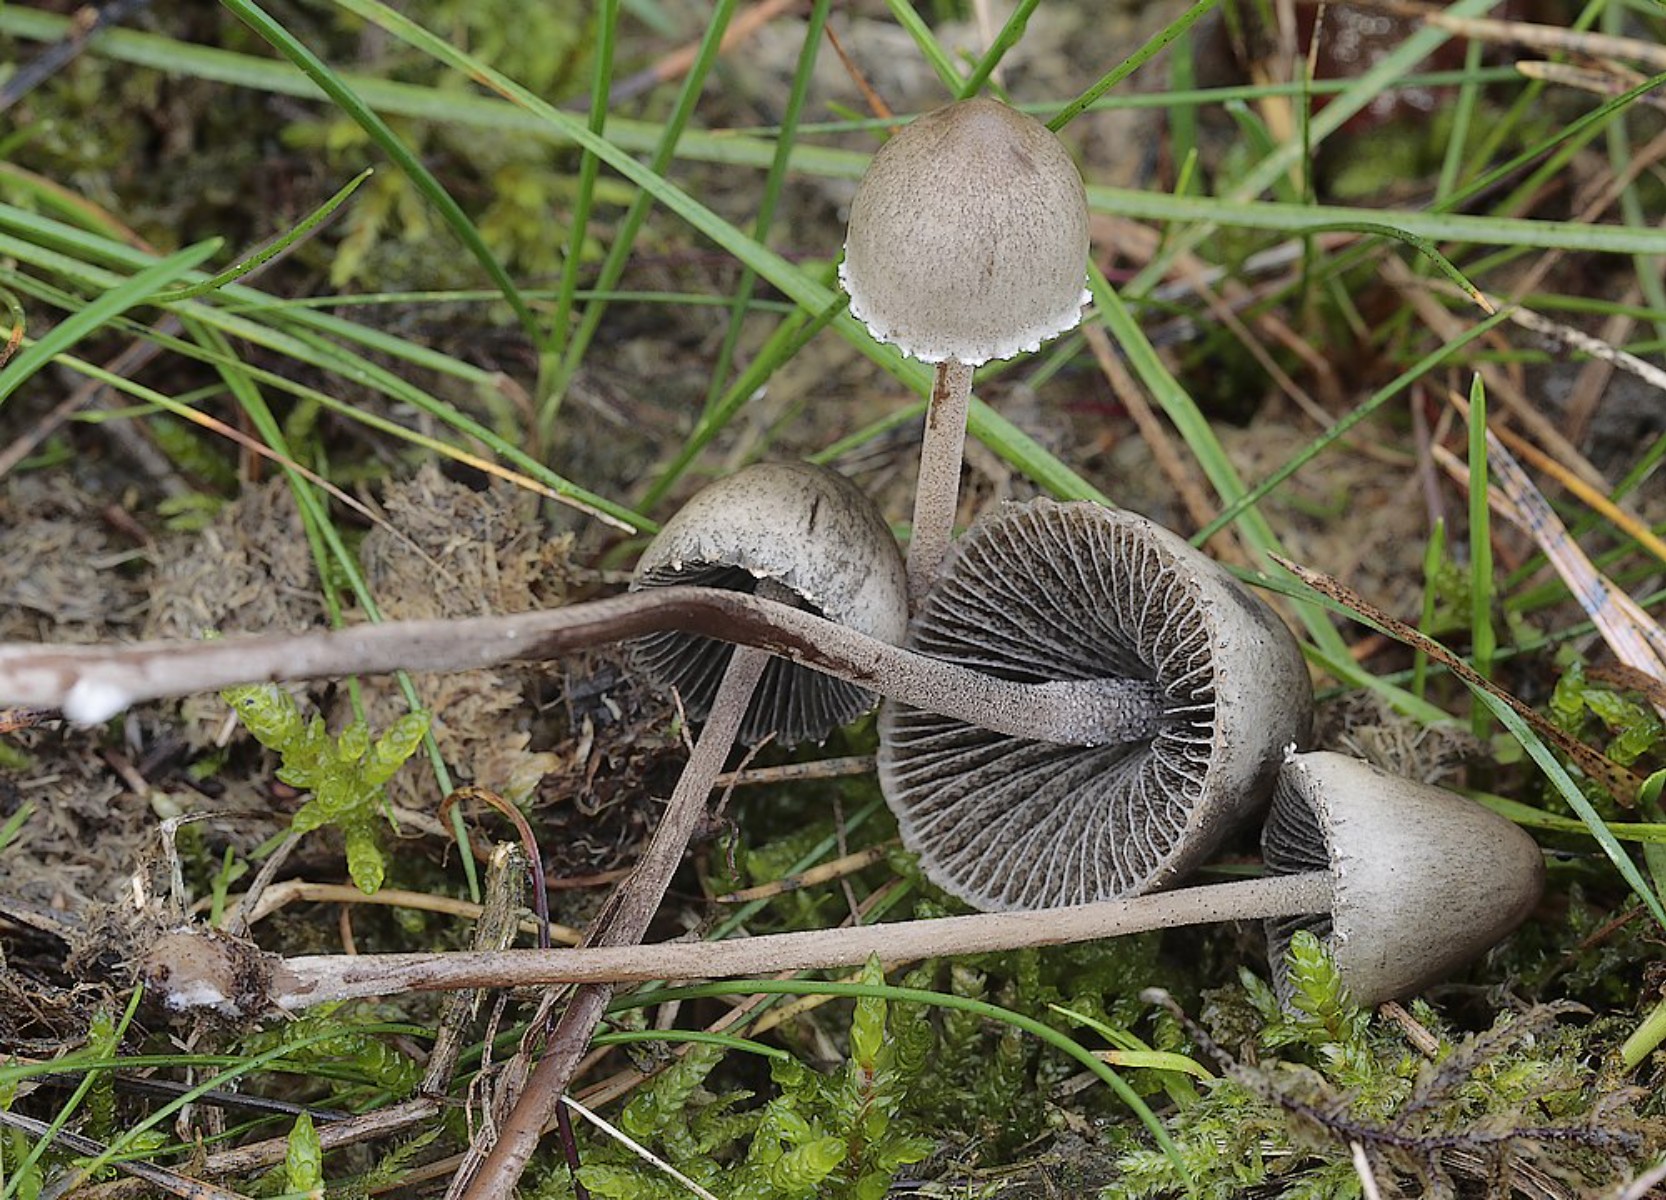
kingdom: Fungi
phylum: Basidiomycota
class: Agaricomycetes
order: Agaricales
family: Bolbitiaceae
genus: Panaeolus
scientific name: Panaeolus papilionaceus
